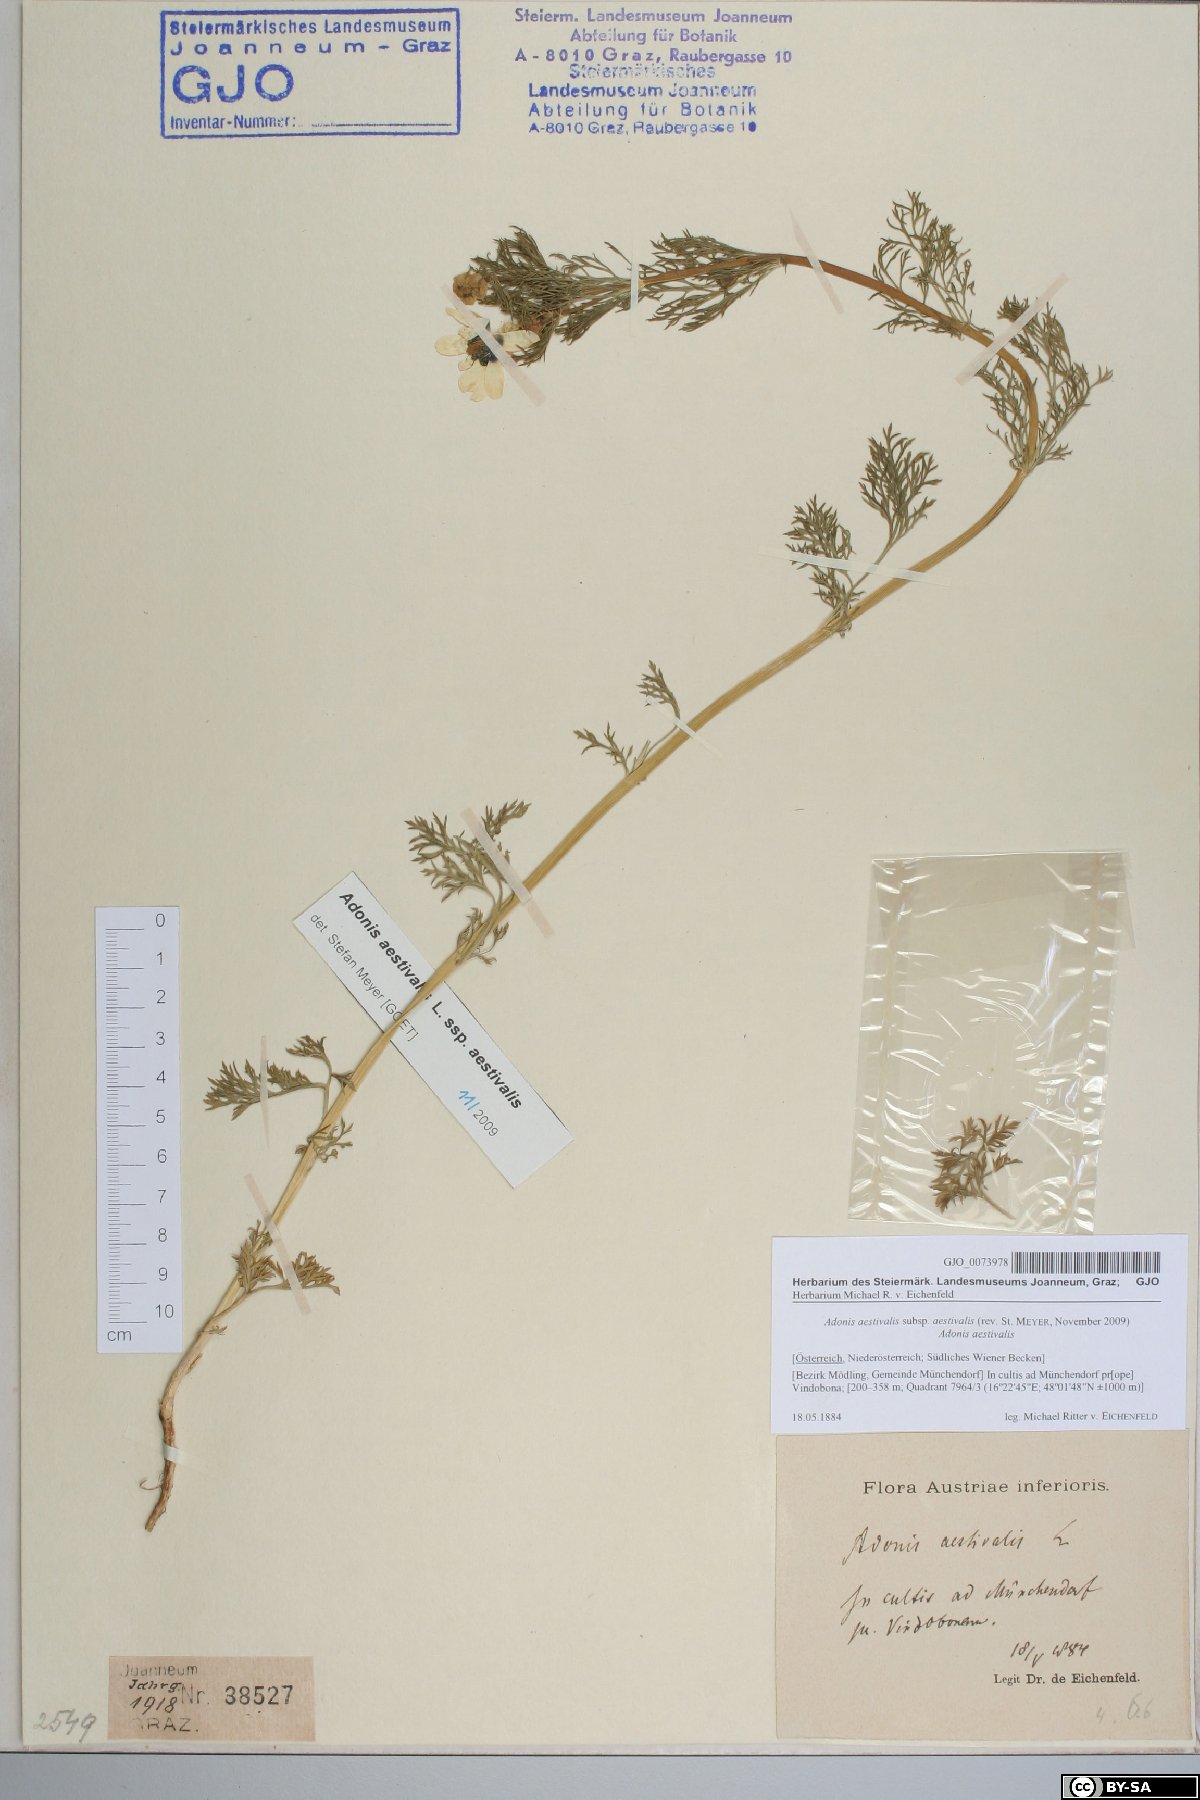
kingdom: Plantae
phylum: Tracheophyta
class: Magnoliopsida
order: Ranunculales
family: Ranunculaceae
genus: Adonis
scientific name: Adonis aestivalis
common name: Summer pheasant's-eye
